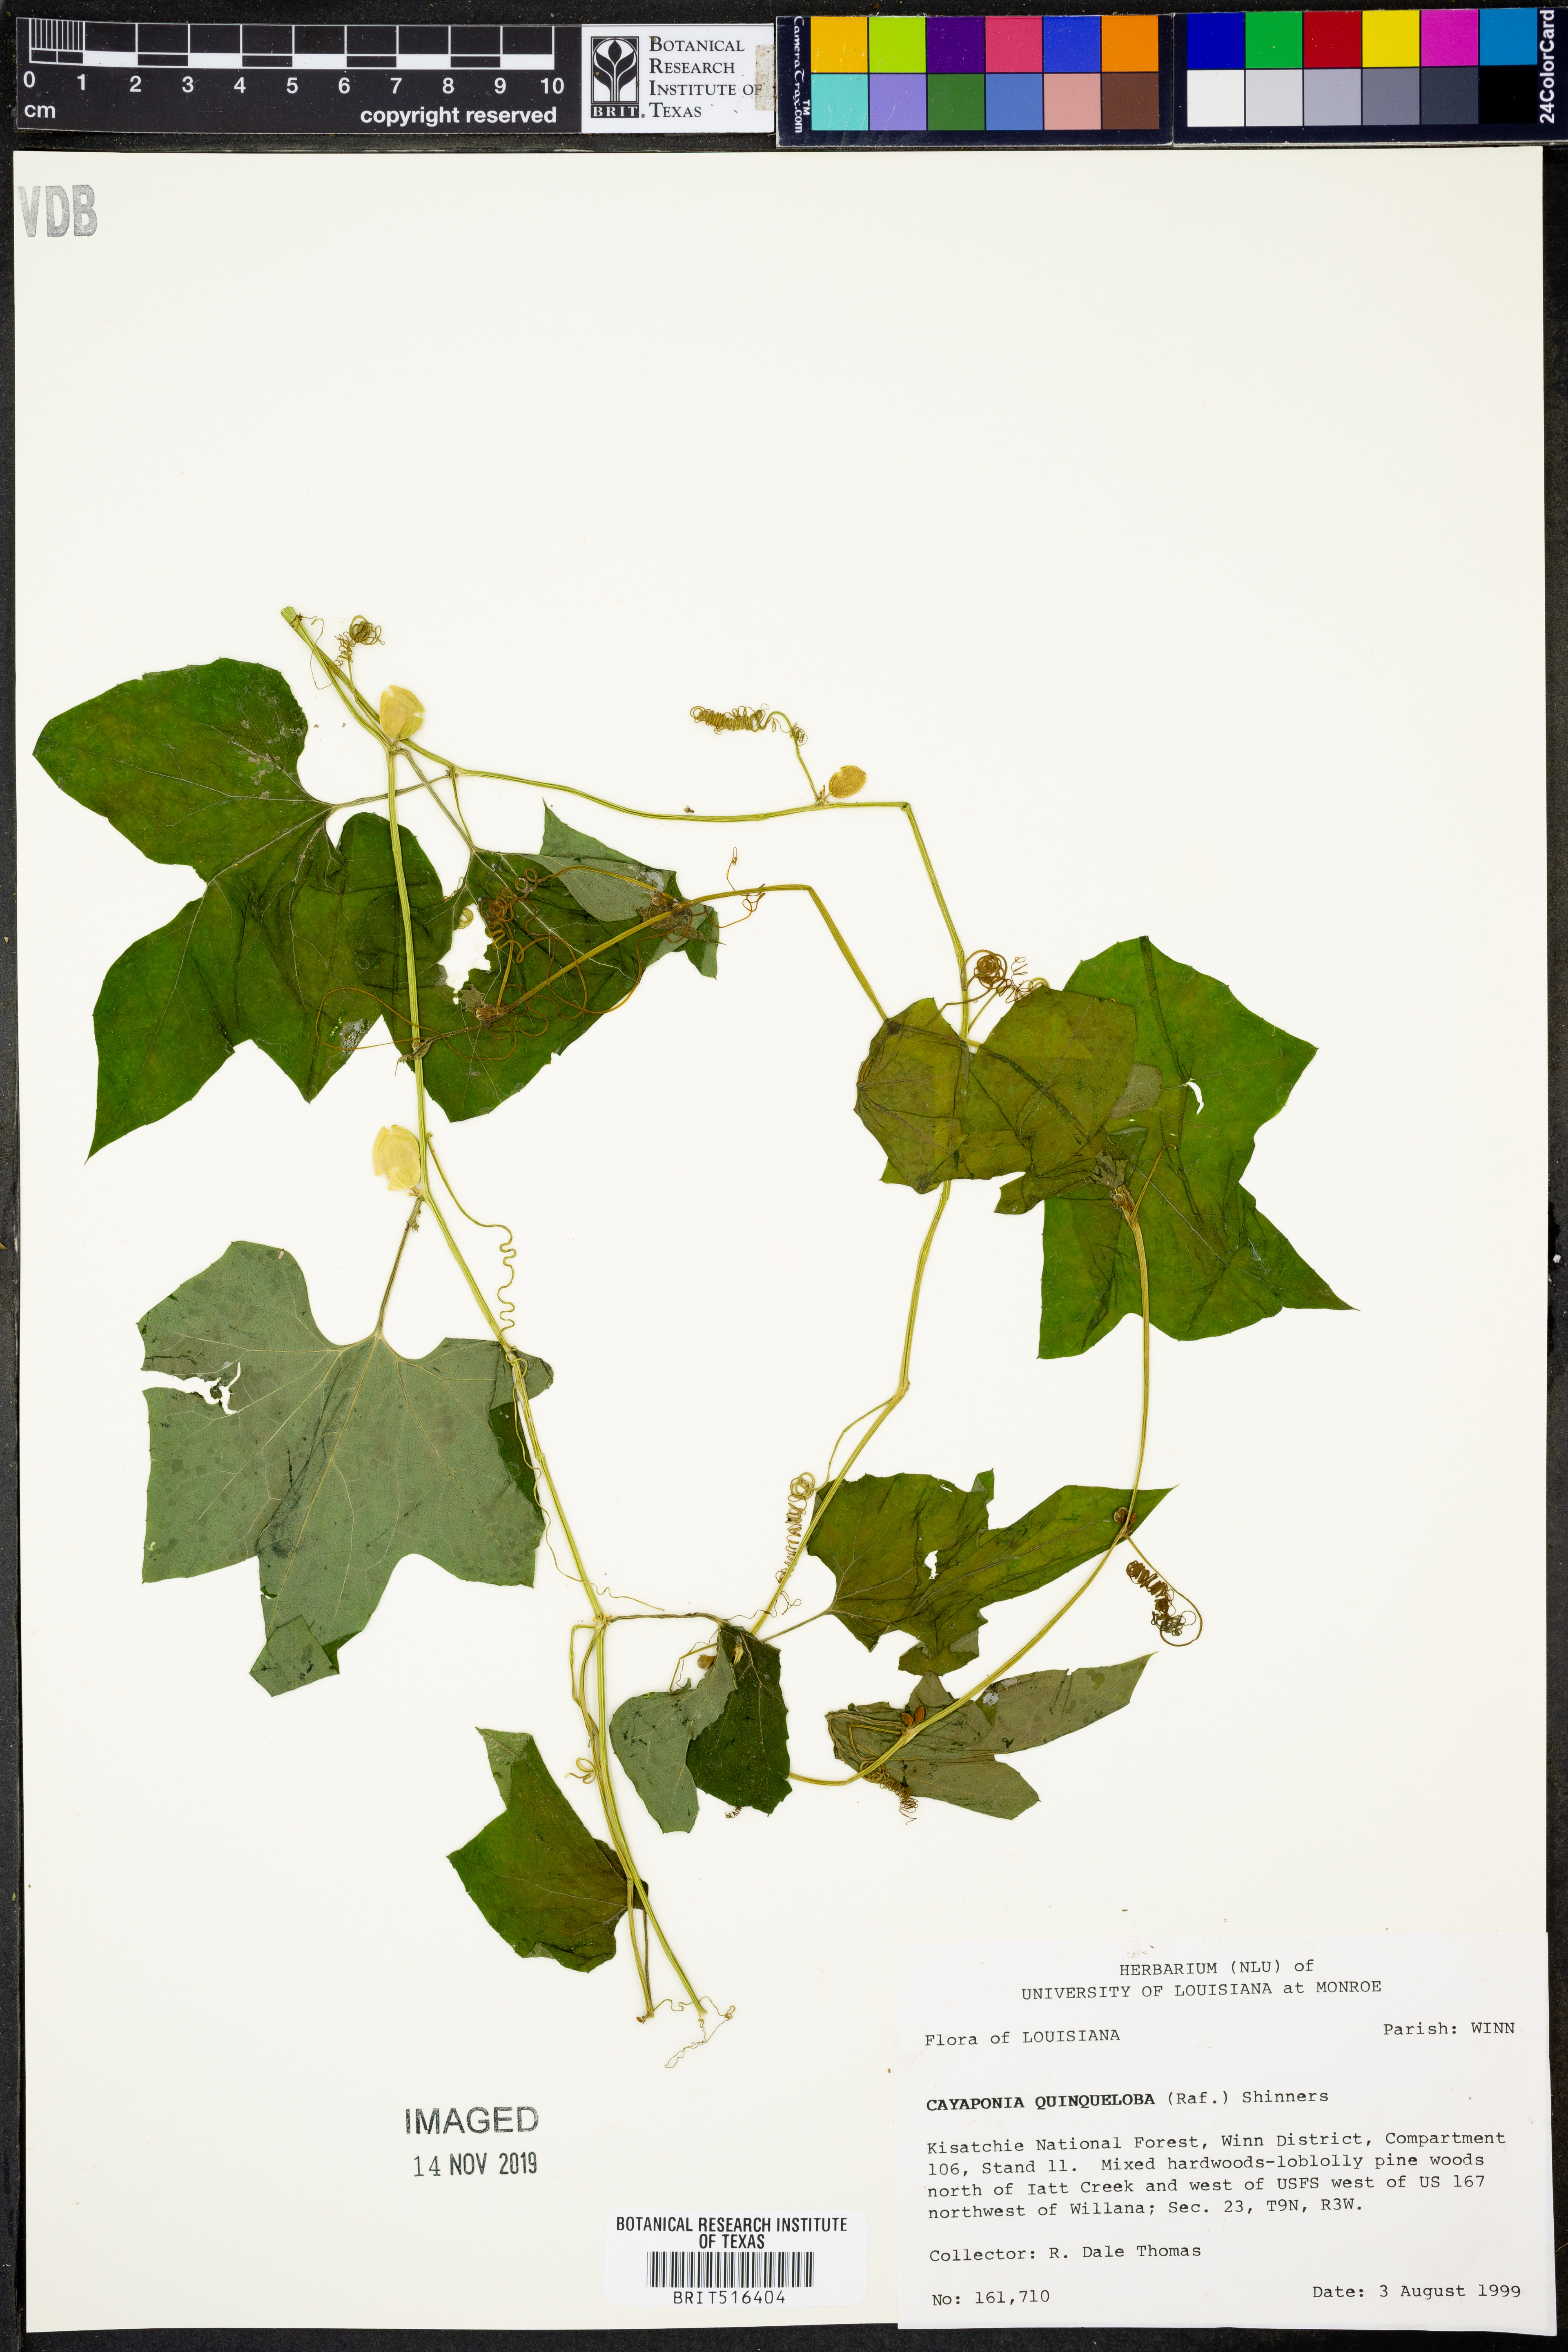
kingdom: Plantae
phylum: Tracheophyta
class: Magnoliopsida
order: Cucurbitales
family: Cucurbitaceae
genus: Cayaponia
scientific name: Cayaponia quinqueloba
